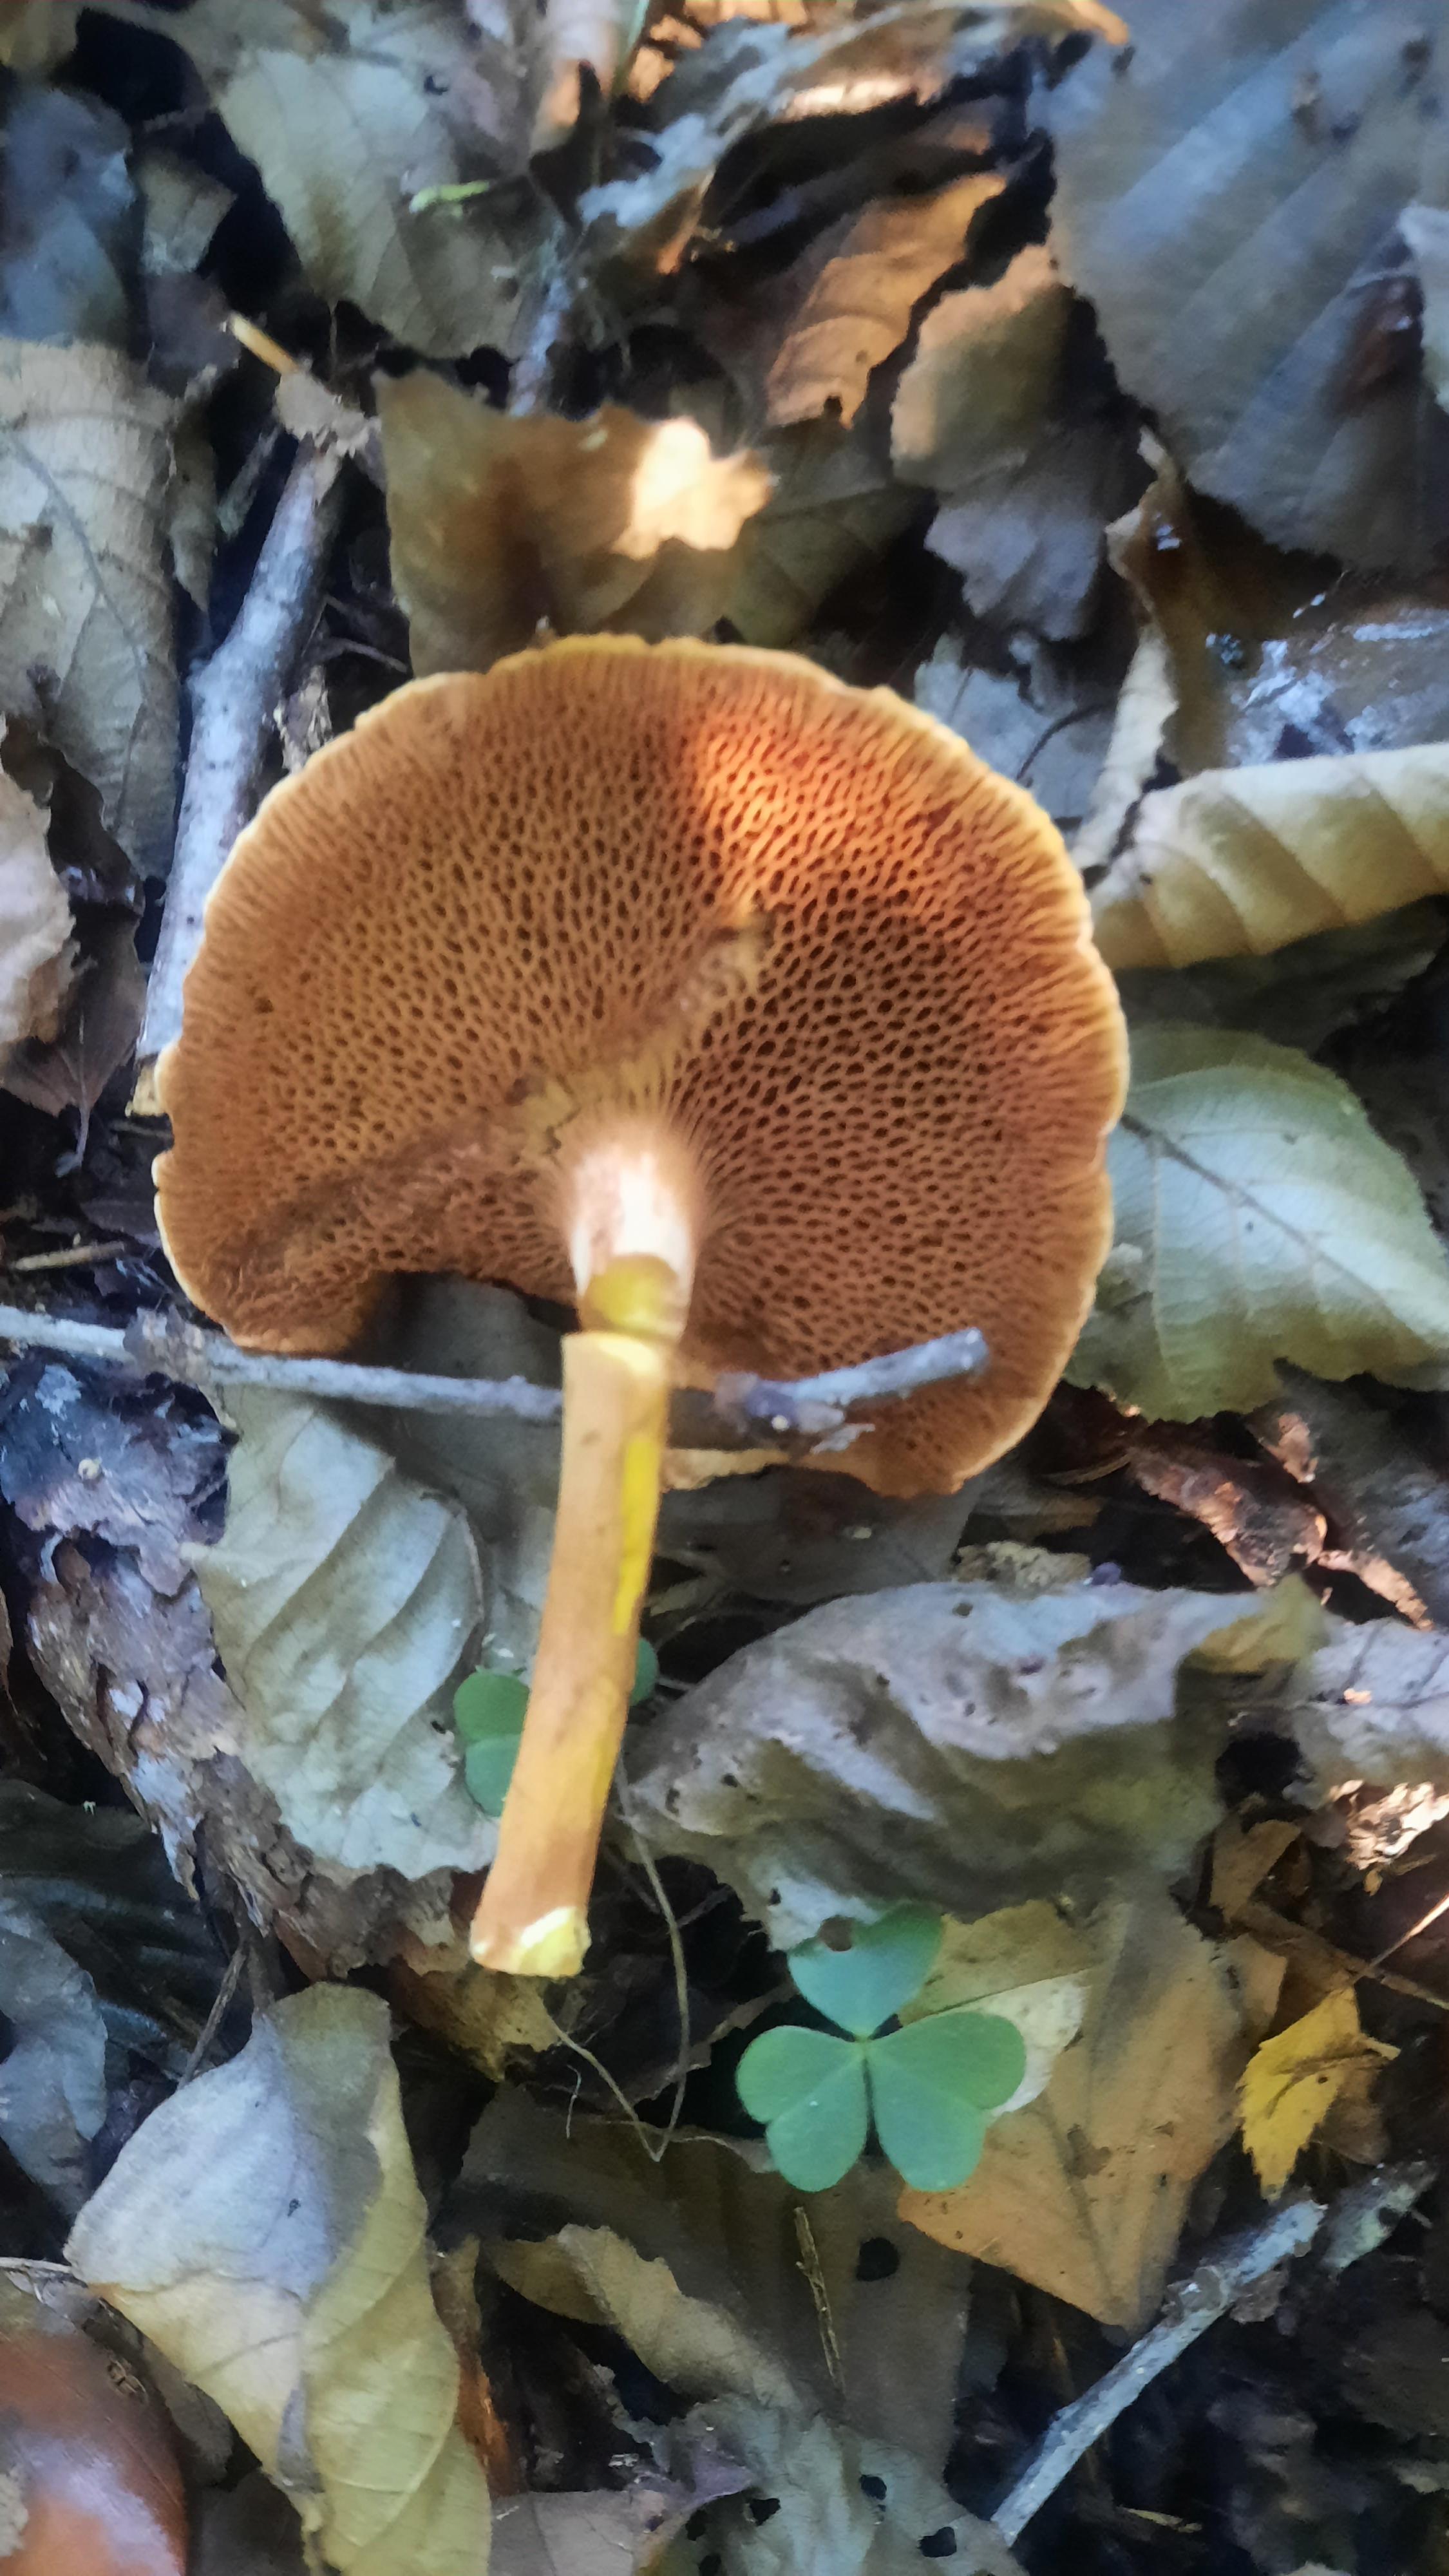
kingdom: Fungi
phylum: Basidiomycota
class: Agaricomycetes
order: Boletales
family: Boletaceae
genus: Chalciporus
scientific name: Chalciporus piperatus
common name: peberrørhat
